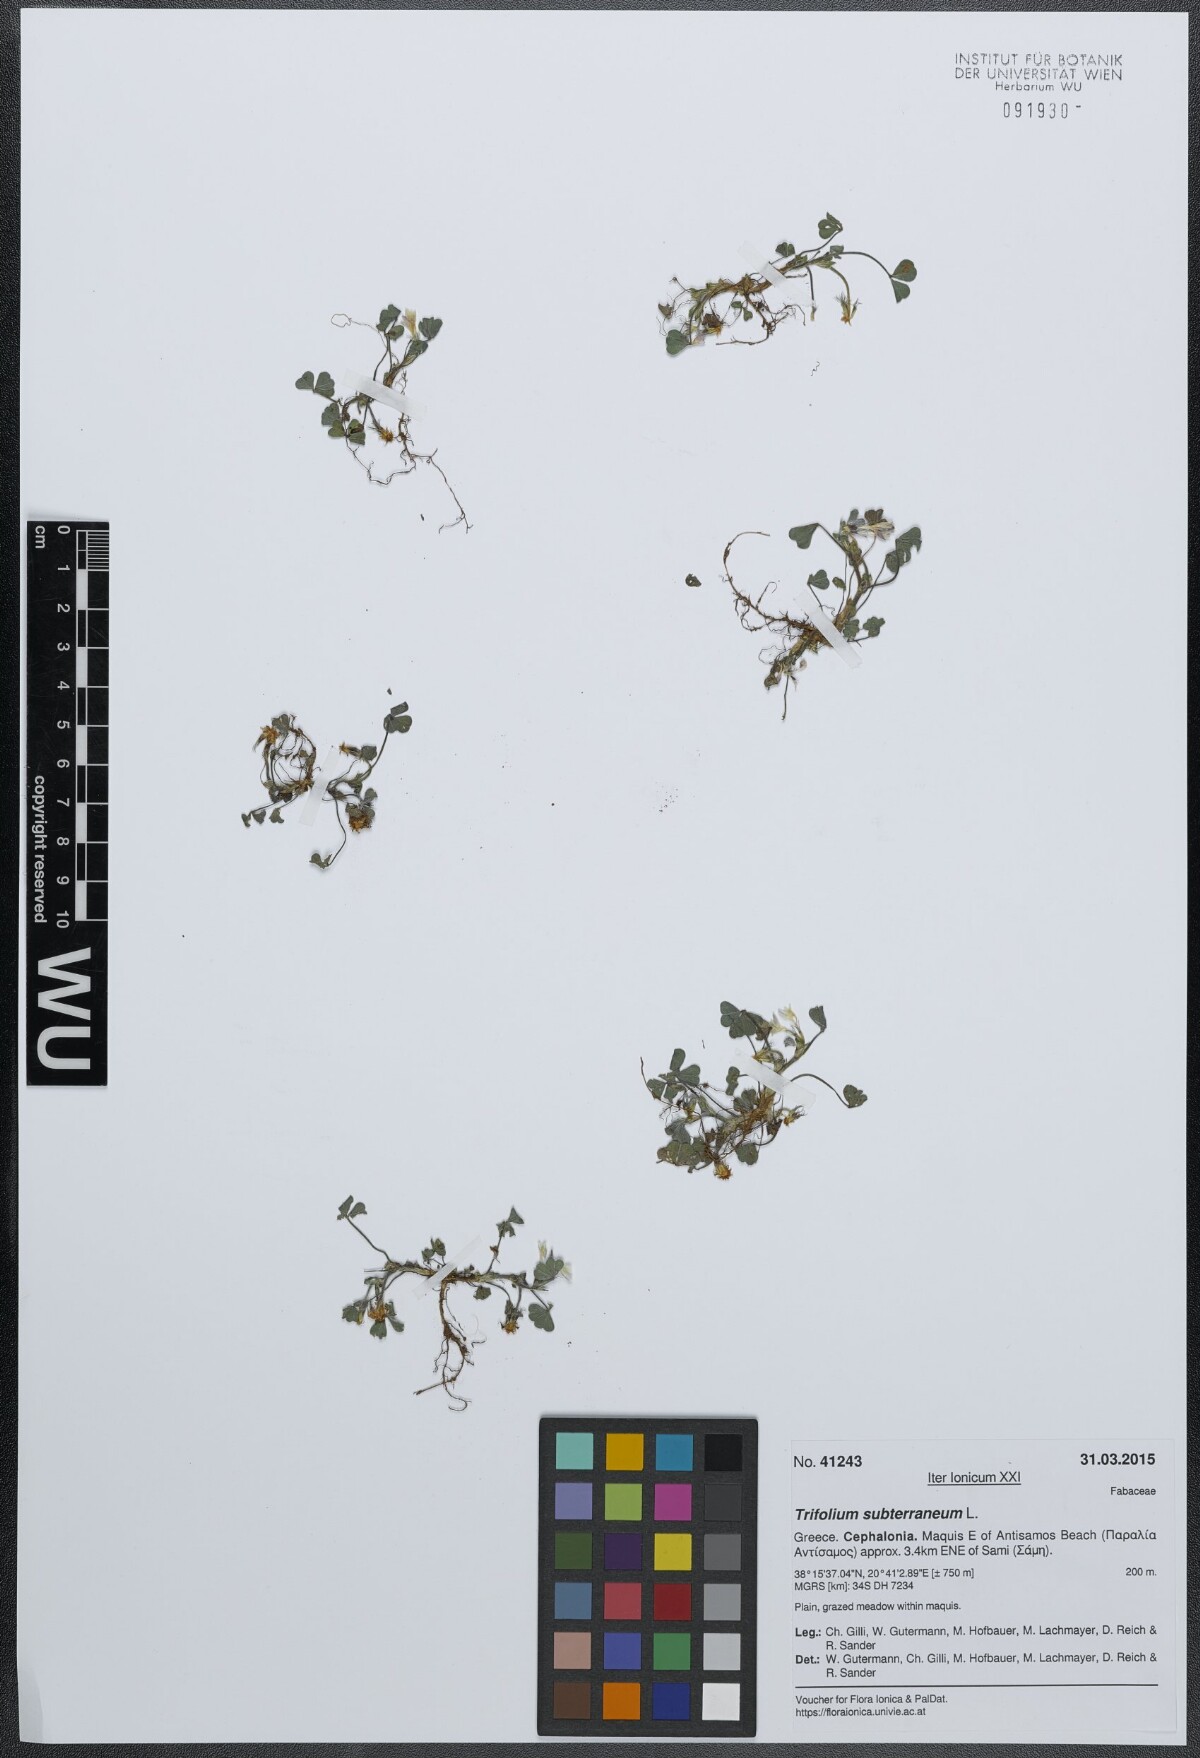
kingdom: Plantae
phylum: Tracheophyta
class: Magnoliopsida
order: Fabales
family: Fabaceae
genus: Trifolium
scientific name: Trifolium subterraneum
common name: Subterranean clover
